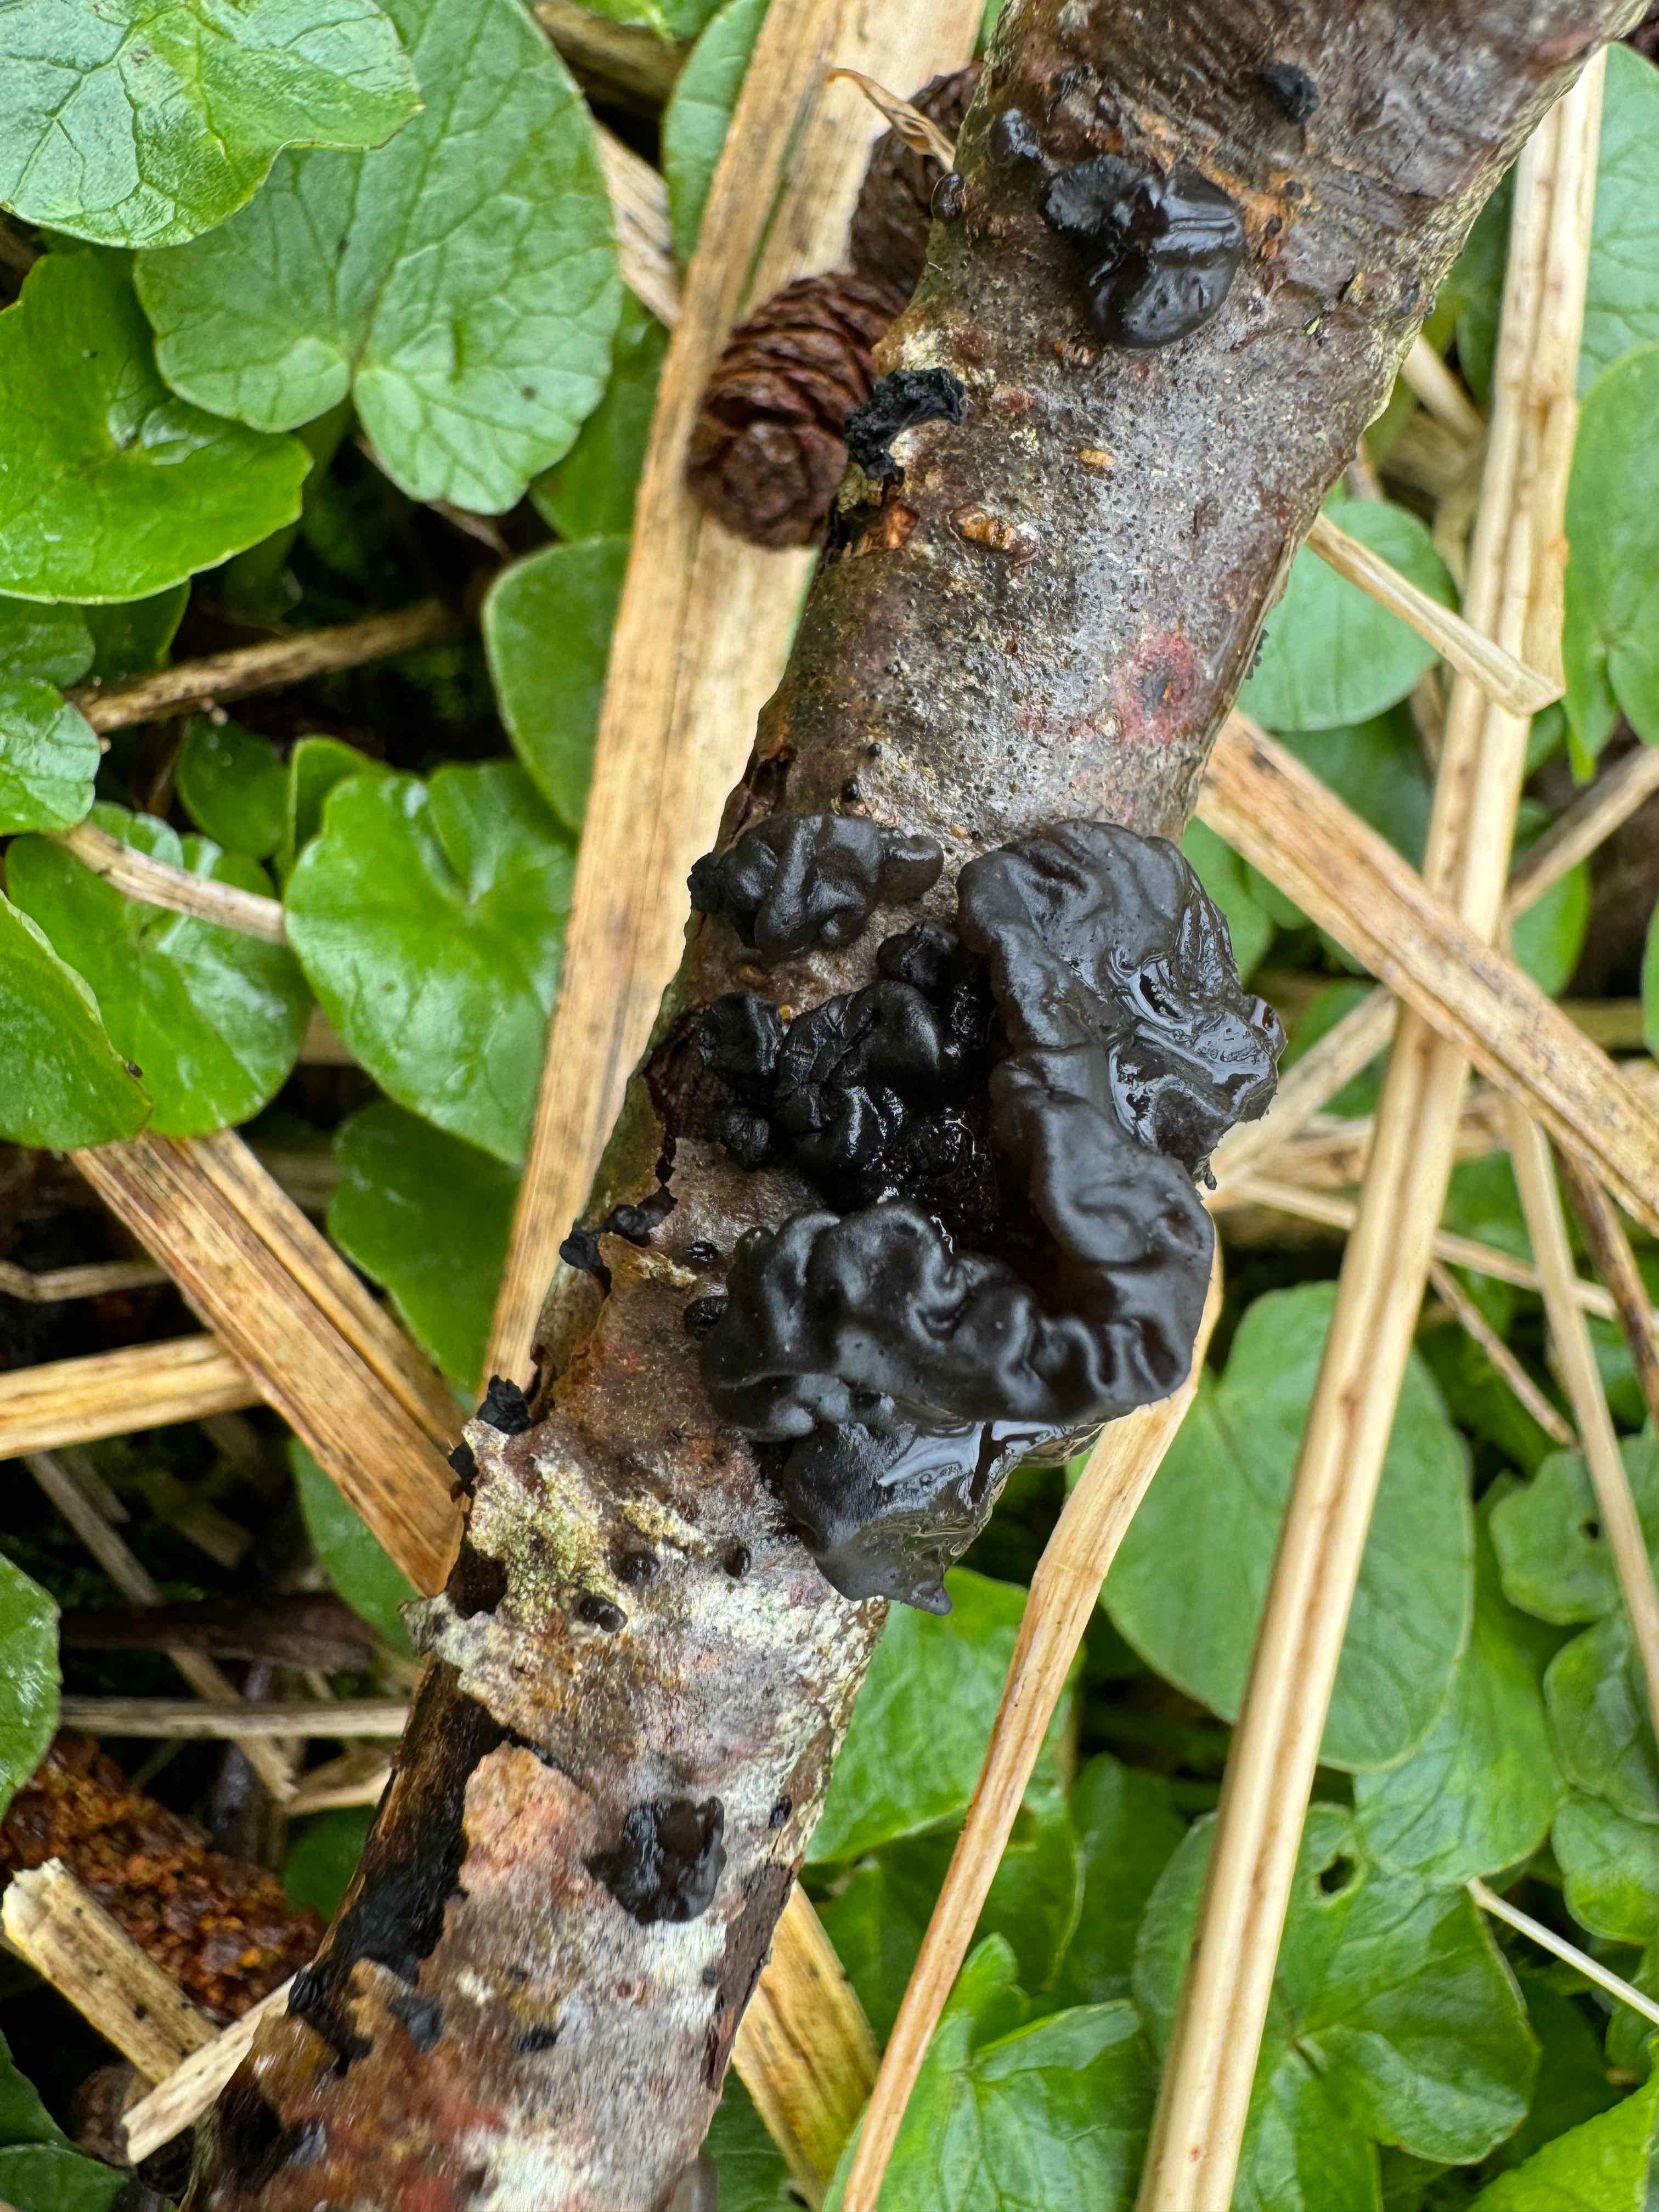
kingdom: Fungi
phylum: Basidiomycota
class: Agaricomycetes
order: Auriculariales
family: Auriculariaceae
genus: Exidia
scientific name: Exidia nigricans
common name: almindelig bævretop
